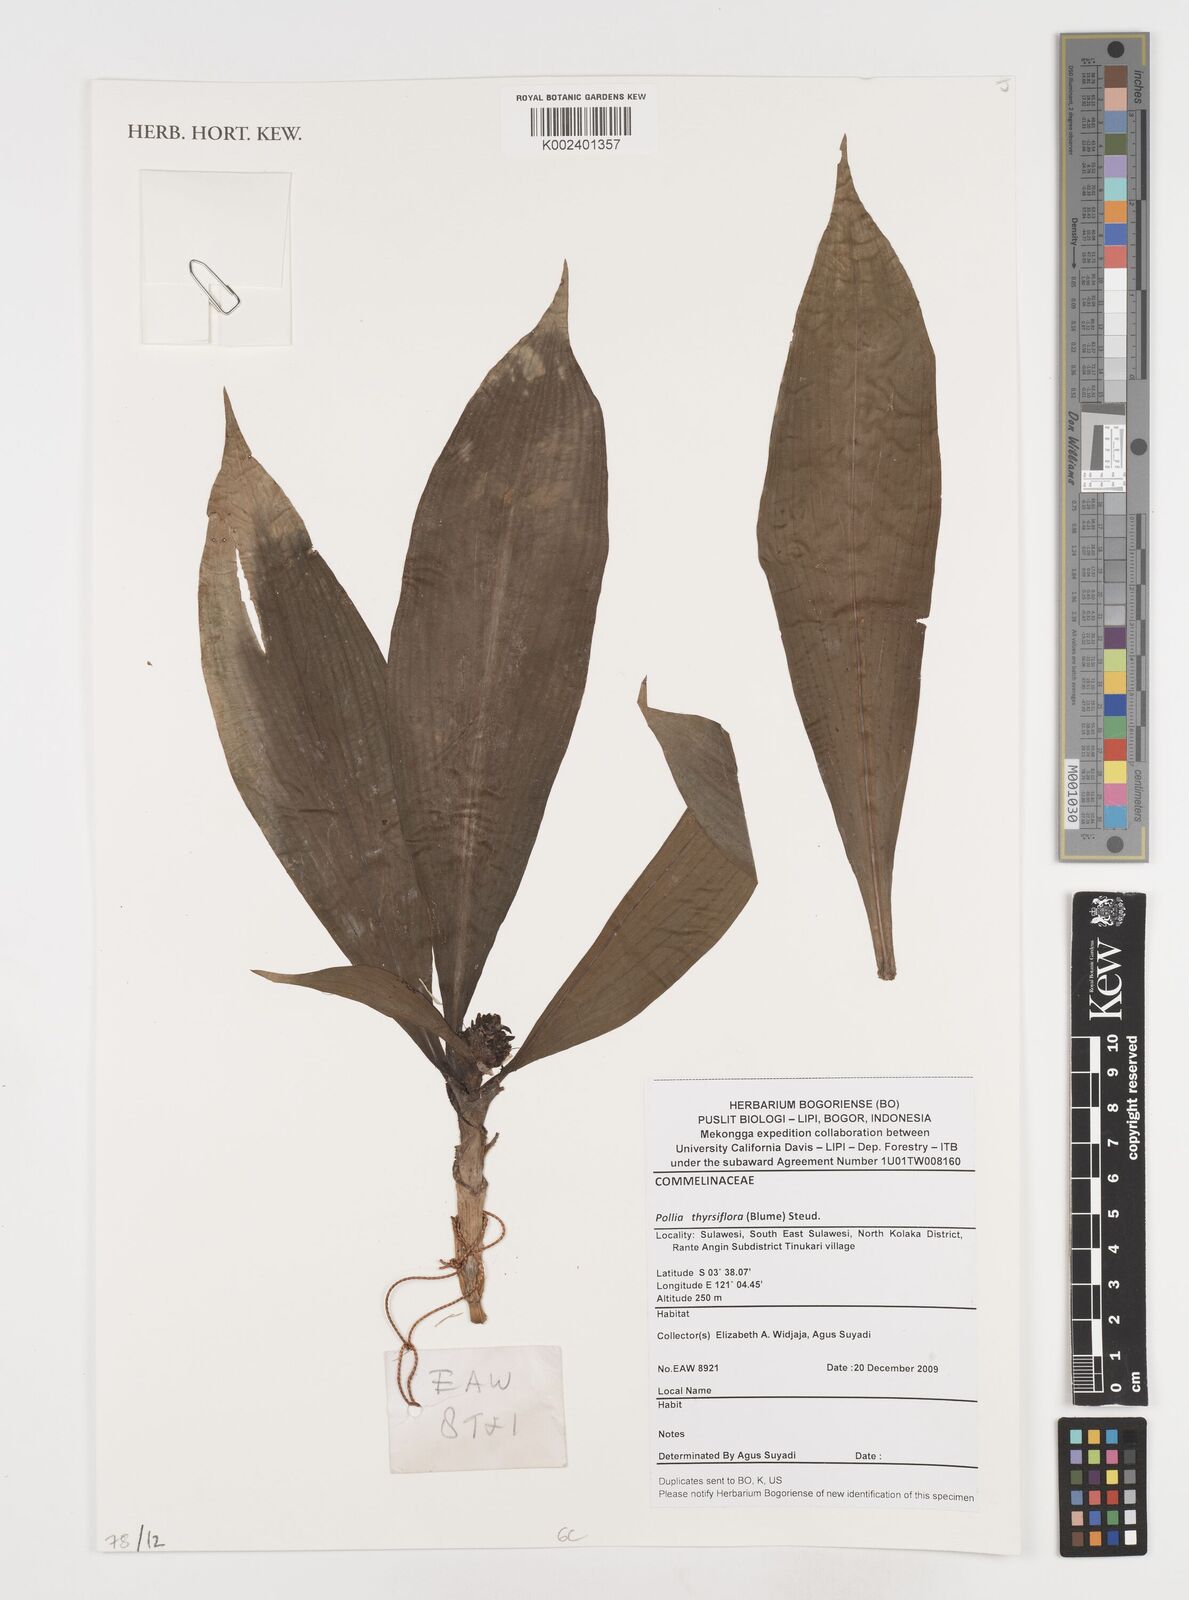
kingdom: Plantae
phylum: Tracheophyta
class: Liliopsida
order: Commelinales
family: Commelinaceae
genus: Pollia
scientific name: Pollia thyrsiflora
